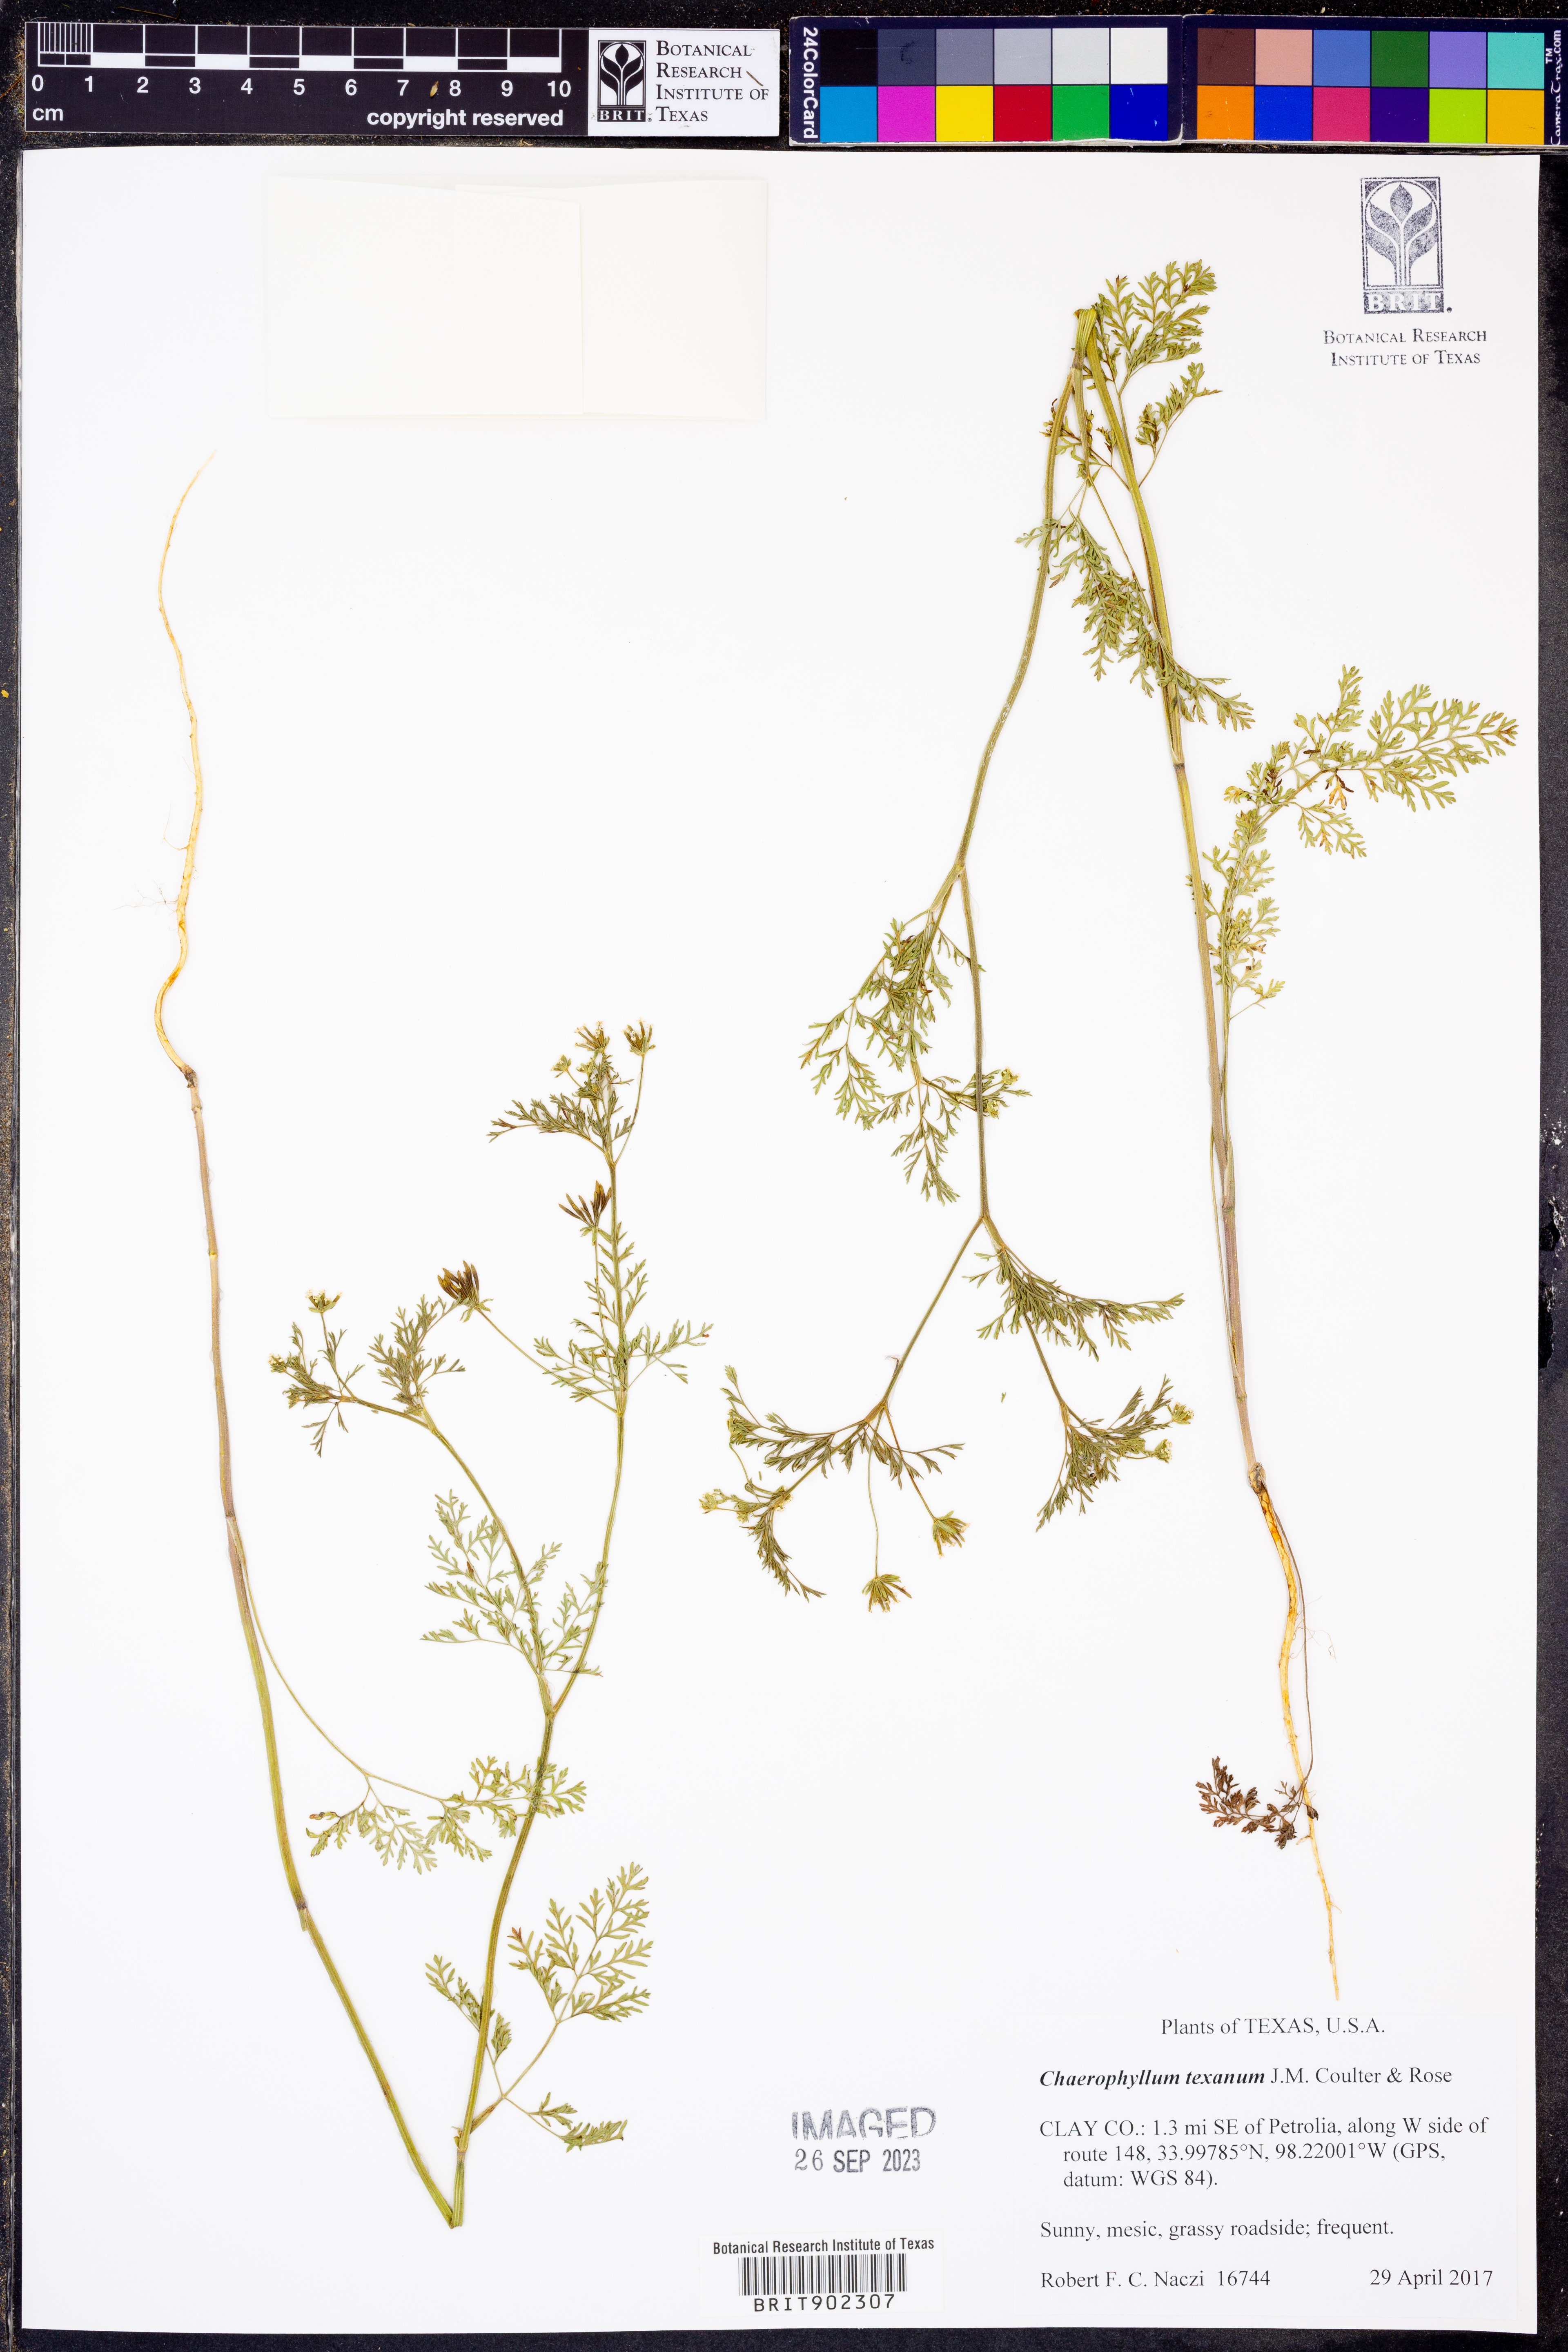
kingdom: Plantae
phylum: Tracheophyta
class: Magnoliopsida
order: Apiales
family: Apiaceae
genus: Chaerophyllum
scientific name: Chaerophyllum tainturieri
